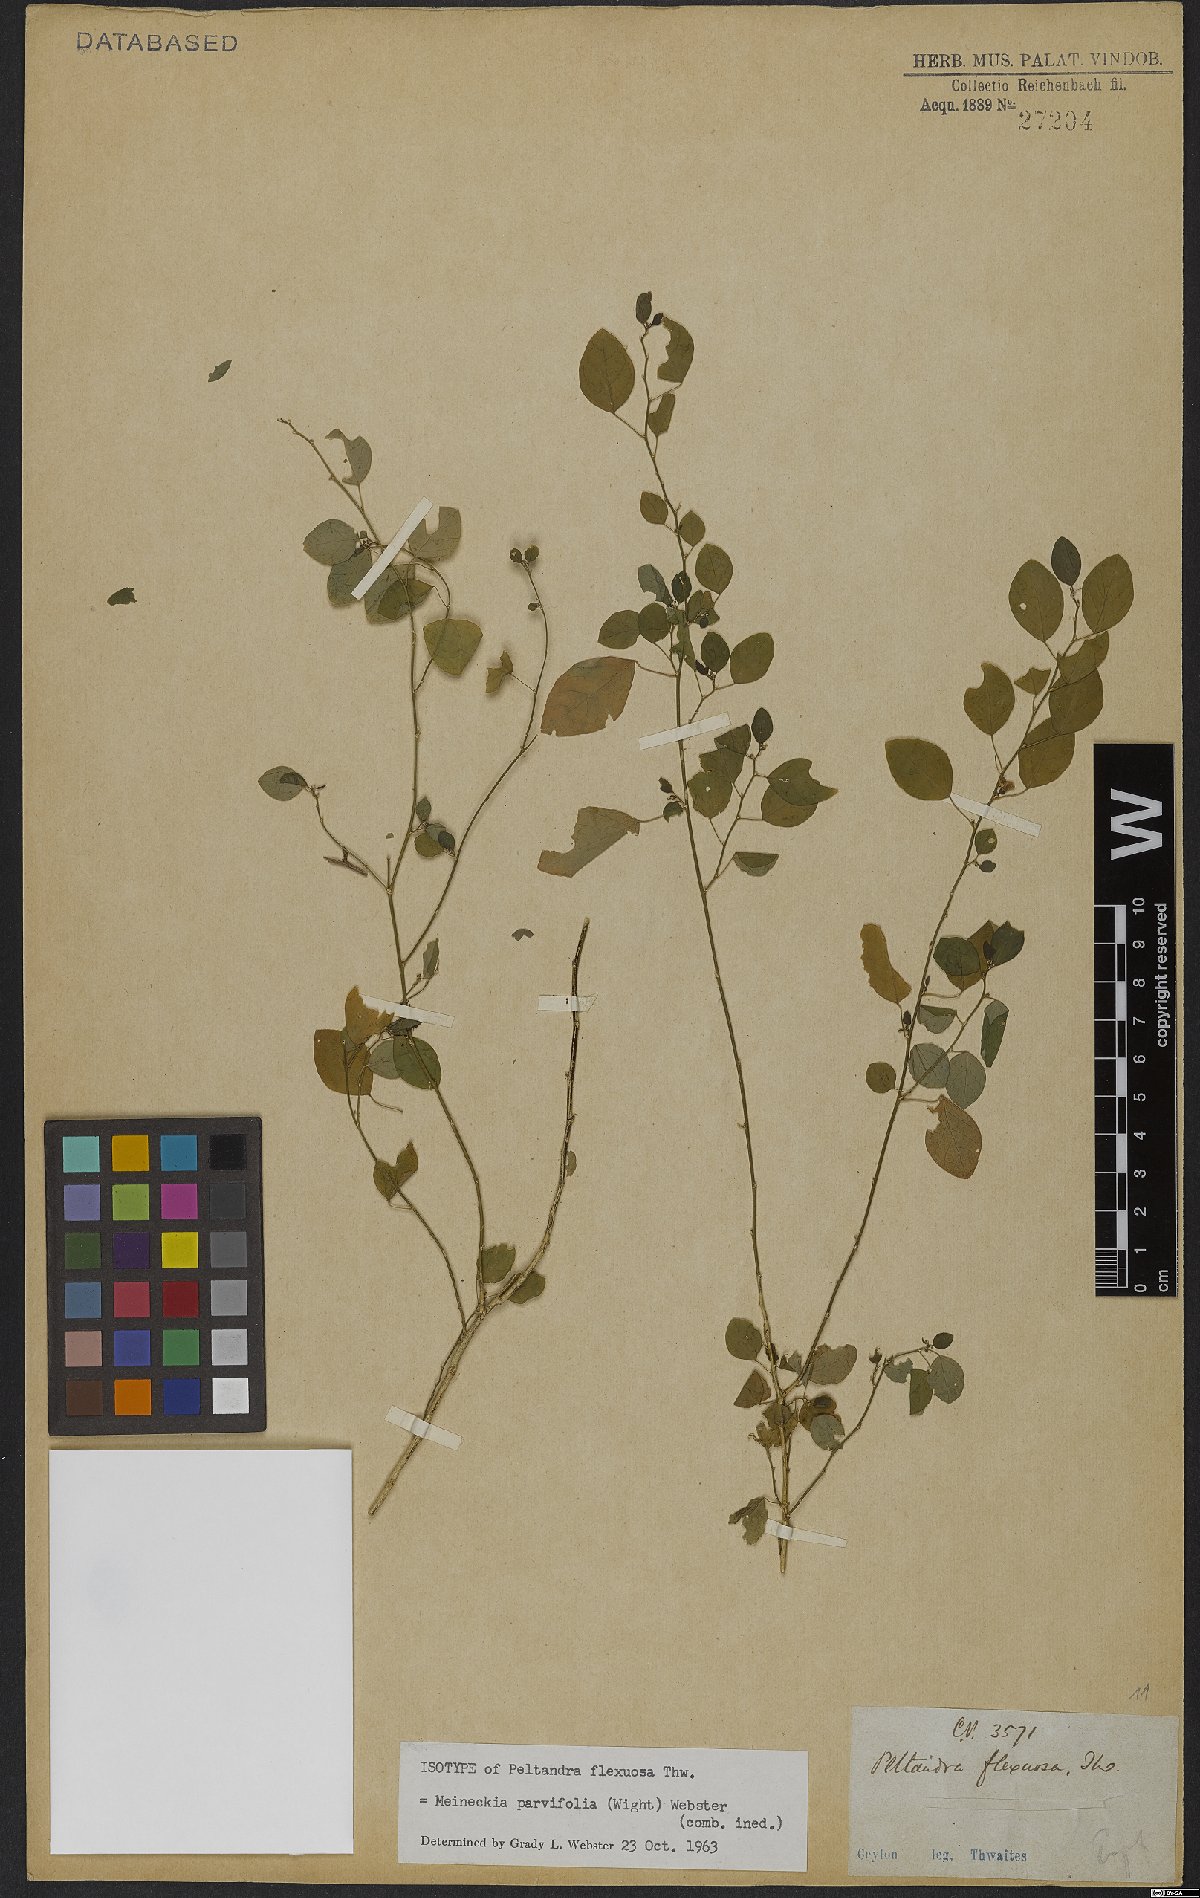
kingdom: Plantae
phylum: Tracheophyta
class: Magnoliopsida
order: Malpighiales
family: Phyllanthaceae
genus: Meineckia
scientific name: Meineckia parvifolia
